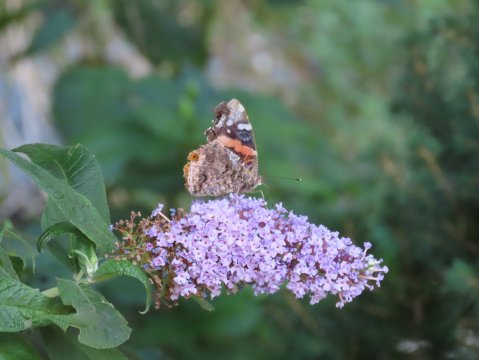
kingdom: Animalia
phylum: Arthropoda
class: Insecta
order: Lepidoptera
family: Nymphalidae
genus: Vanessa
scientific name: Vanessa atalanta
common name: Red Admiral
